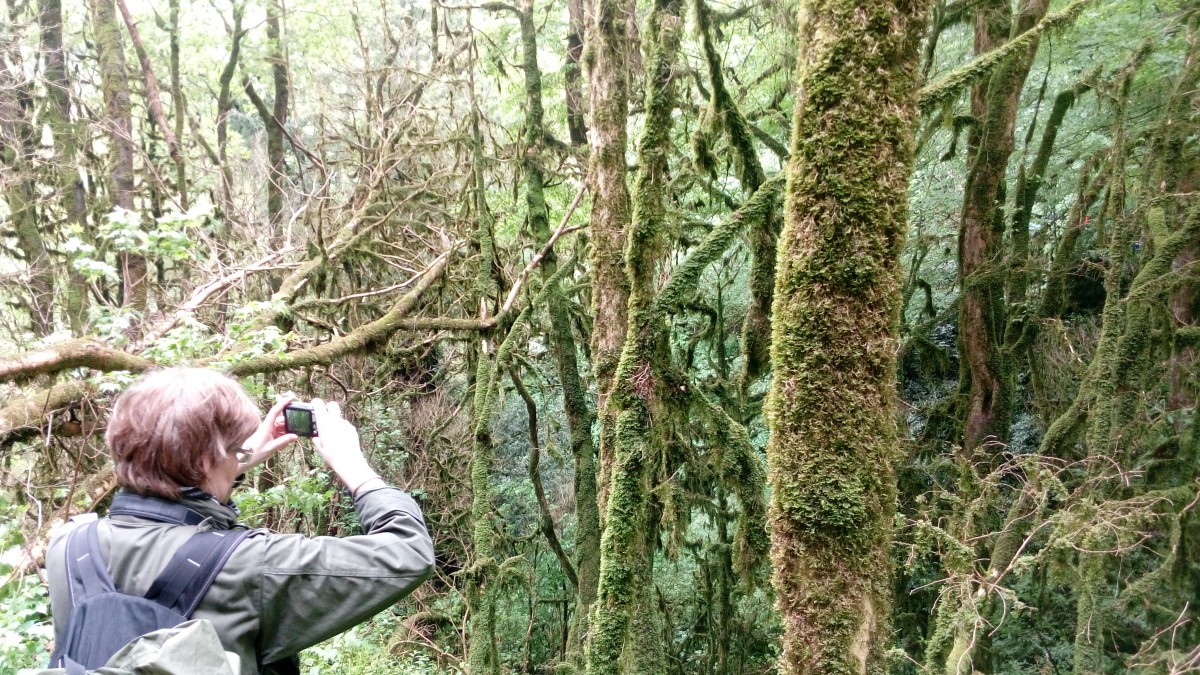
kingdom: Plantae
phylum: Tracheophyta
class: Magnoliopsida
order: Buxales
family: Buxaceae
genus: Buxus
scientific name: Buxus
